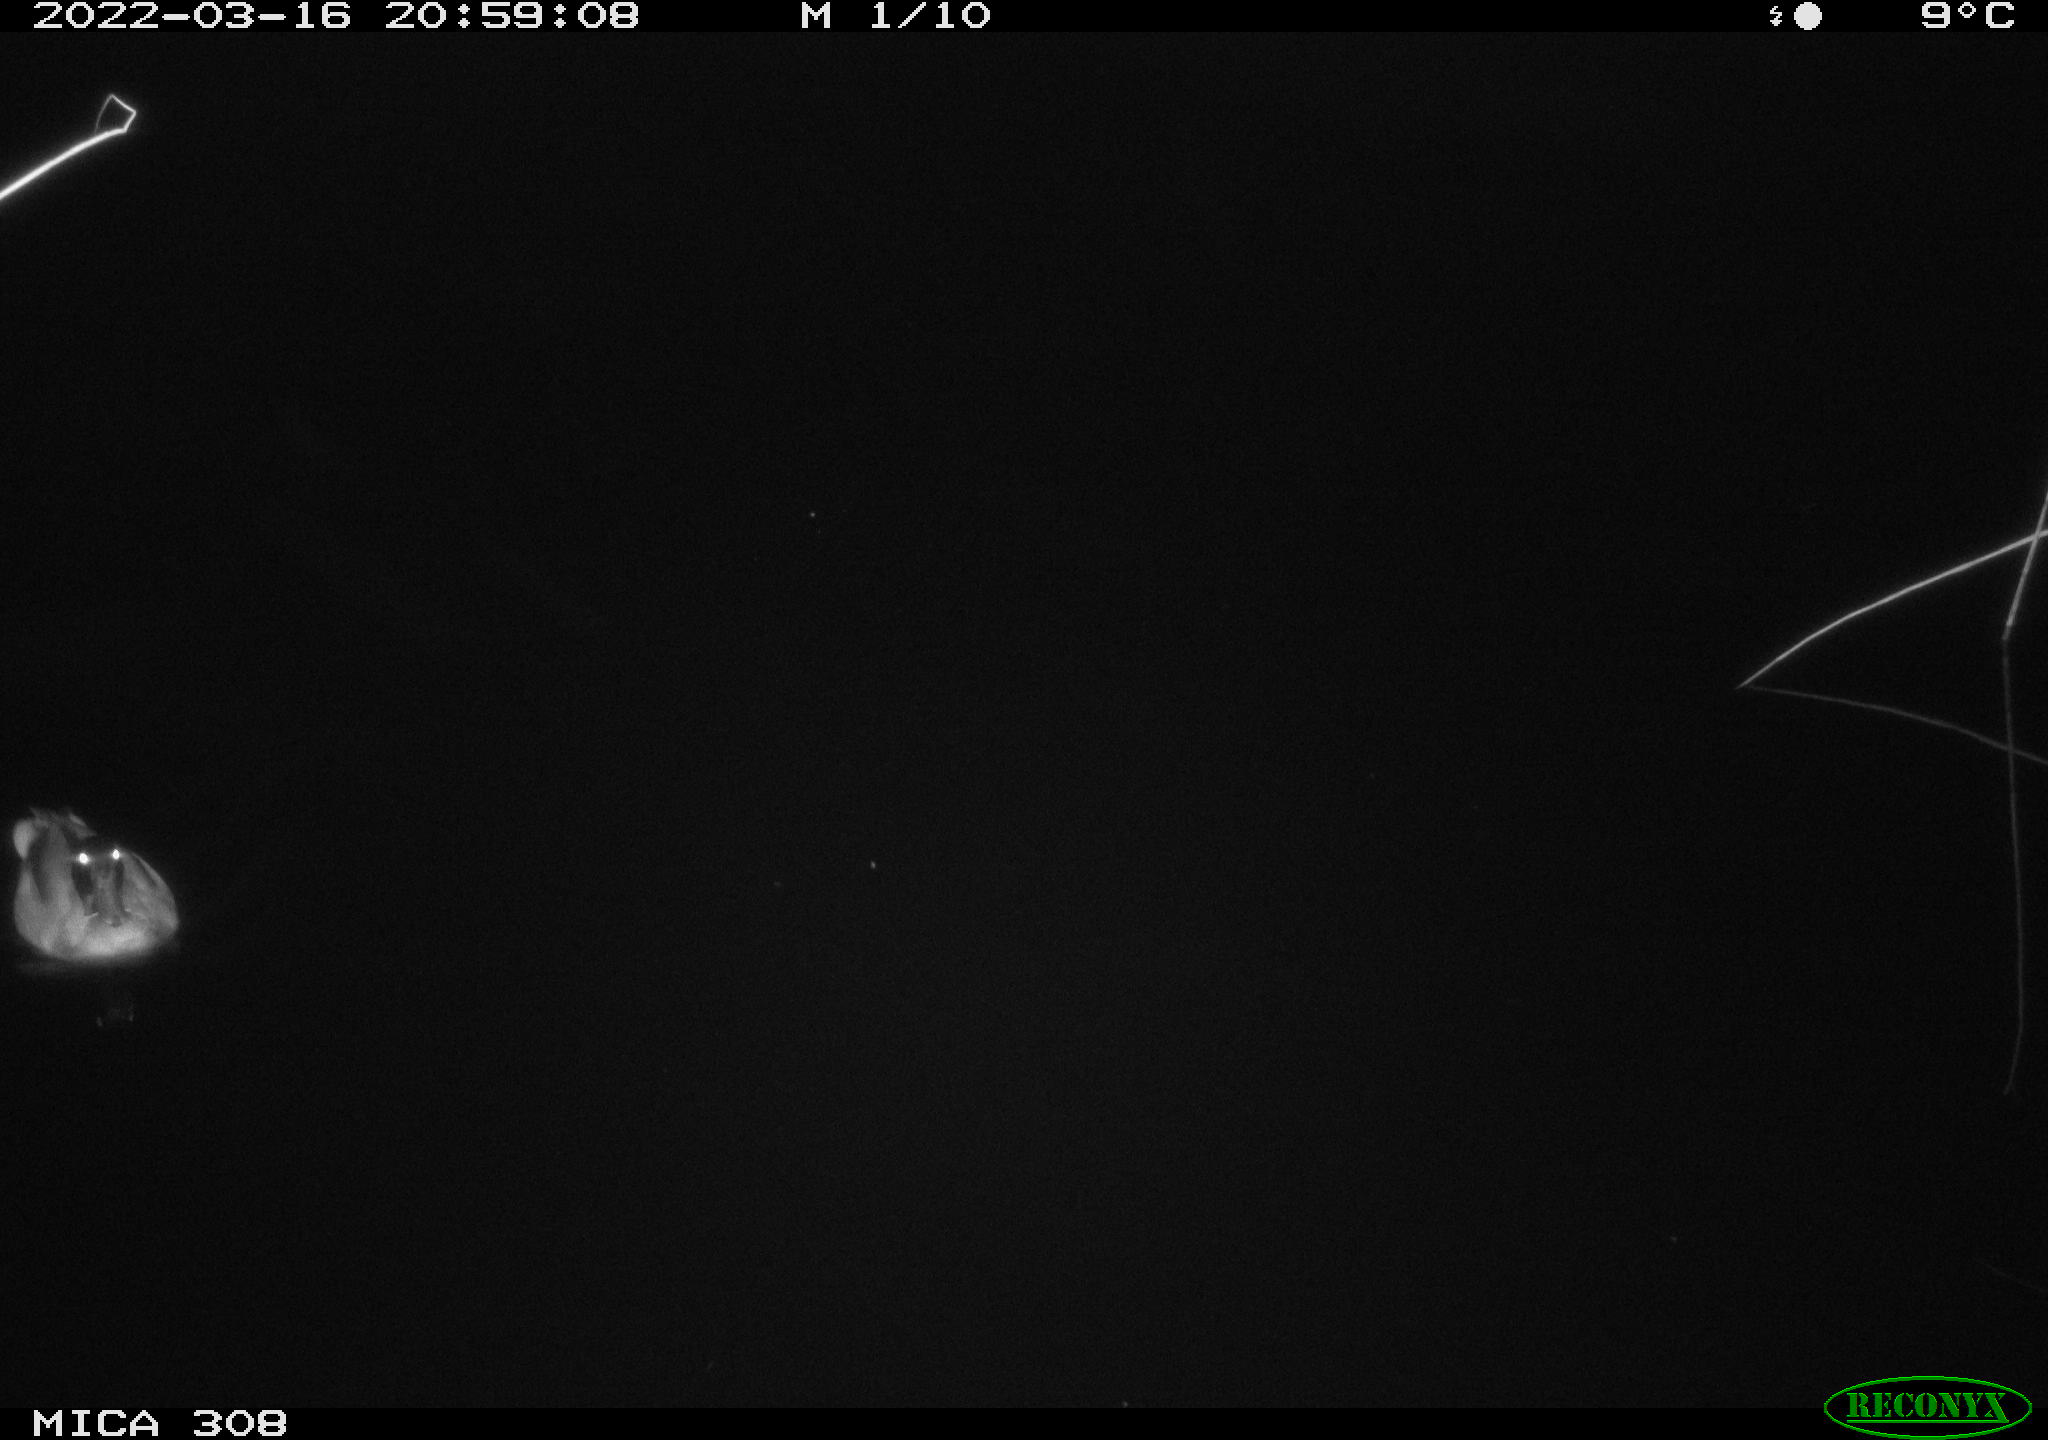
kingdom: Animalia
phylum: Chordata
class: Aves
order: Anseriformes
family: Anatidae
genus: Anas
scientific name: Anas platyrhynchos
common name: Mallard
